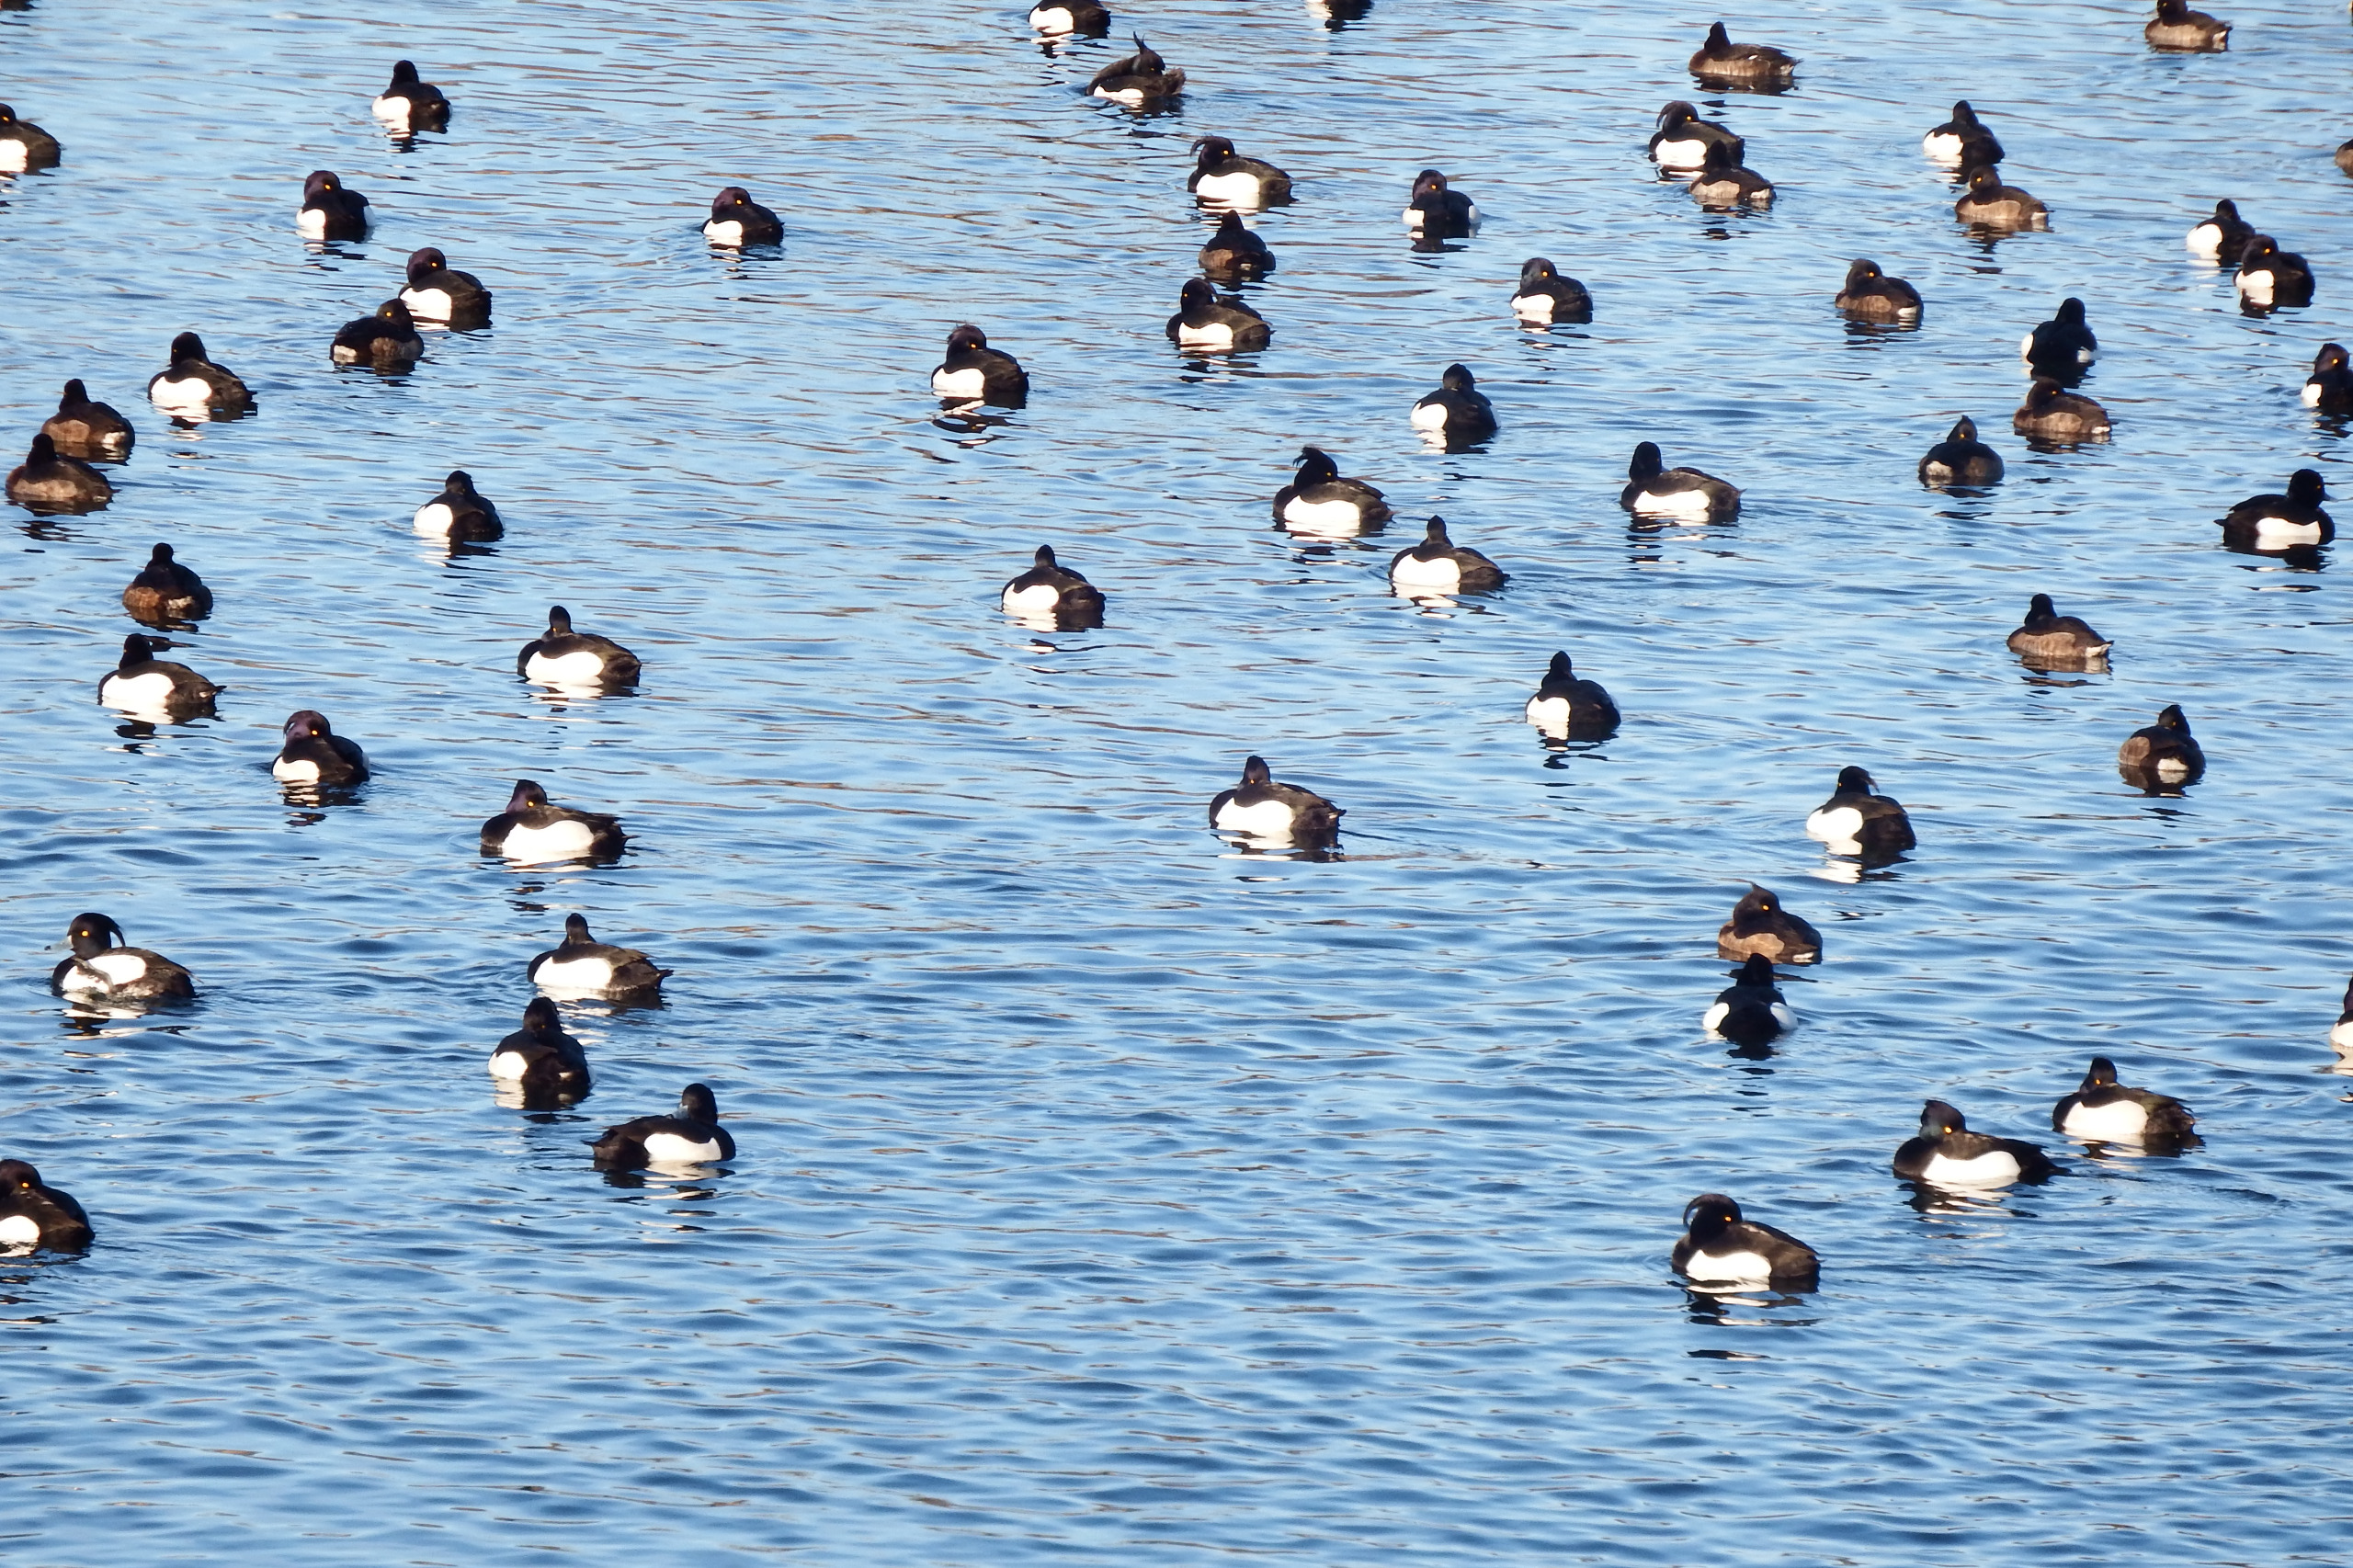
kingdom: Animalia
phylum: Chordata
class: Aves
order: Anseriformes
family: Anatidae
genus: Aythya
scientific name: Aythya fuligula
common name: Troldand
